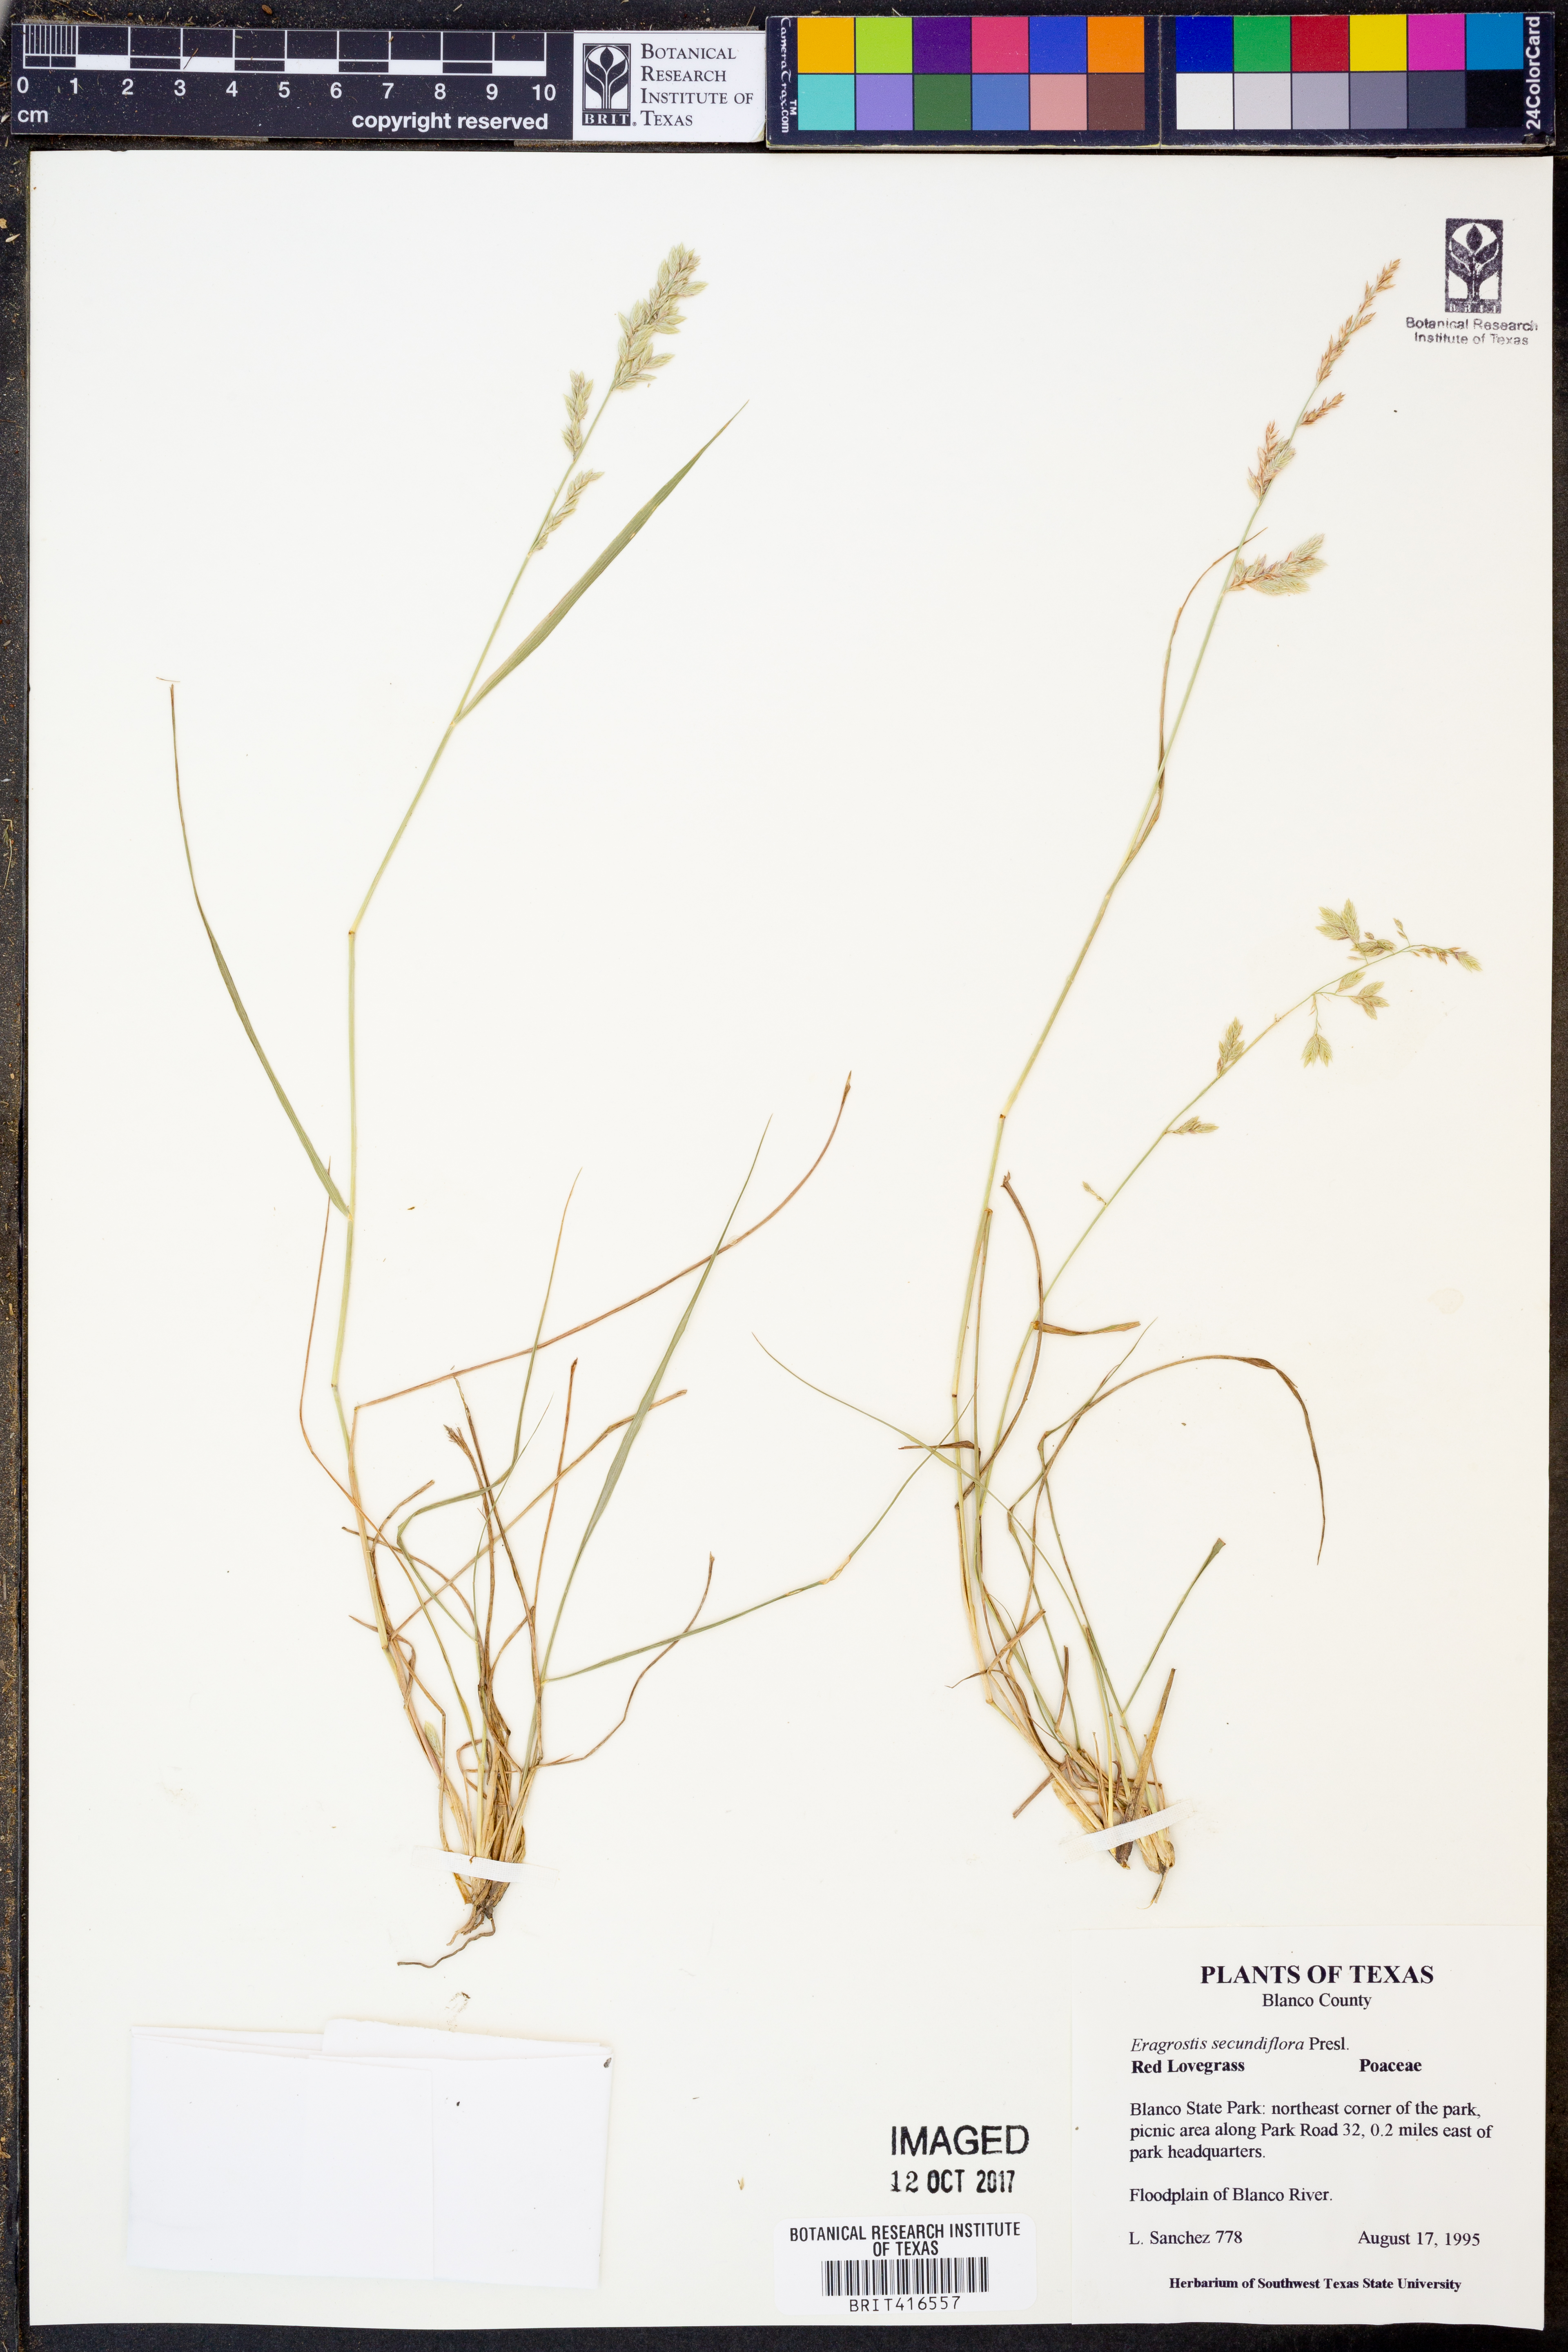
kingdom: Plantae
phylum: Tracheophyta
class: Liliopsida
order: Poales
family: Poaceae
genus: Eragrostis
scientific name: Eragrostis secundiflora
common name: Red love grass
